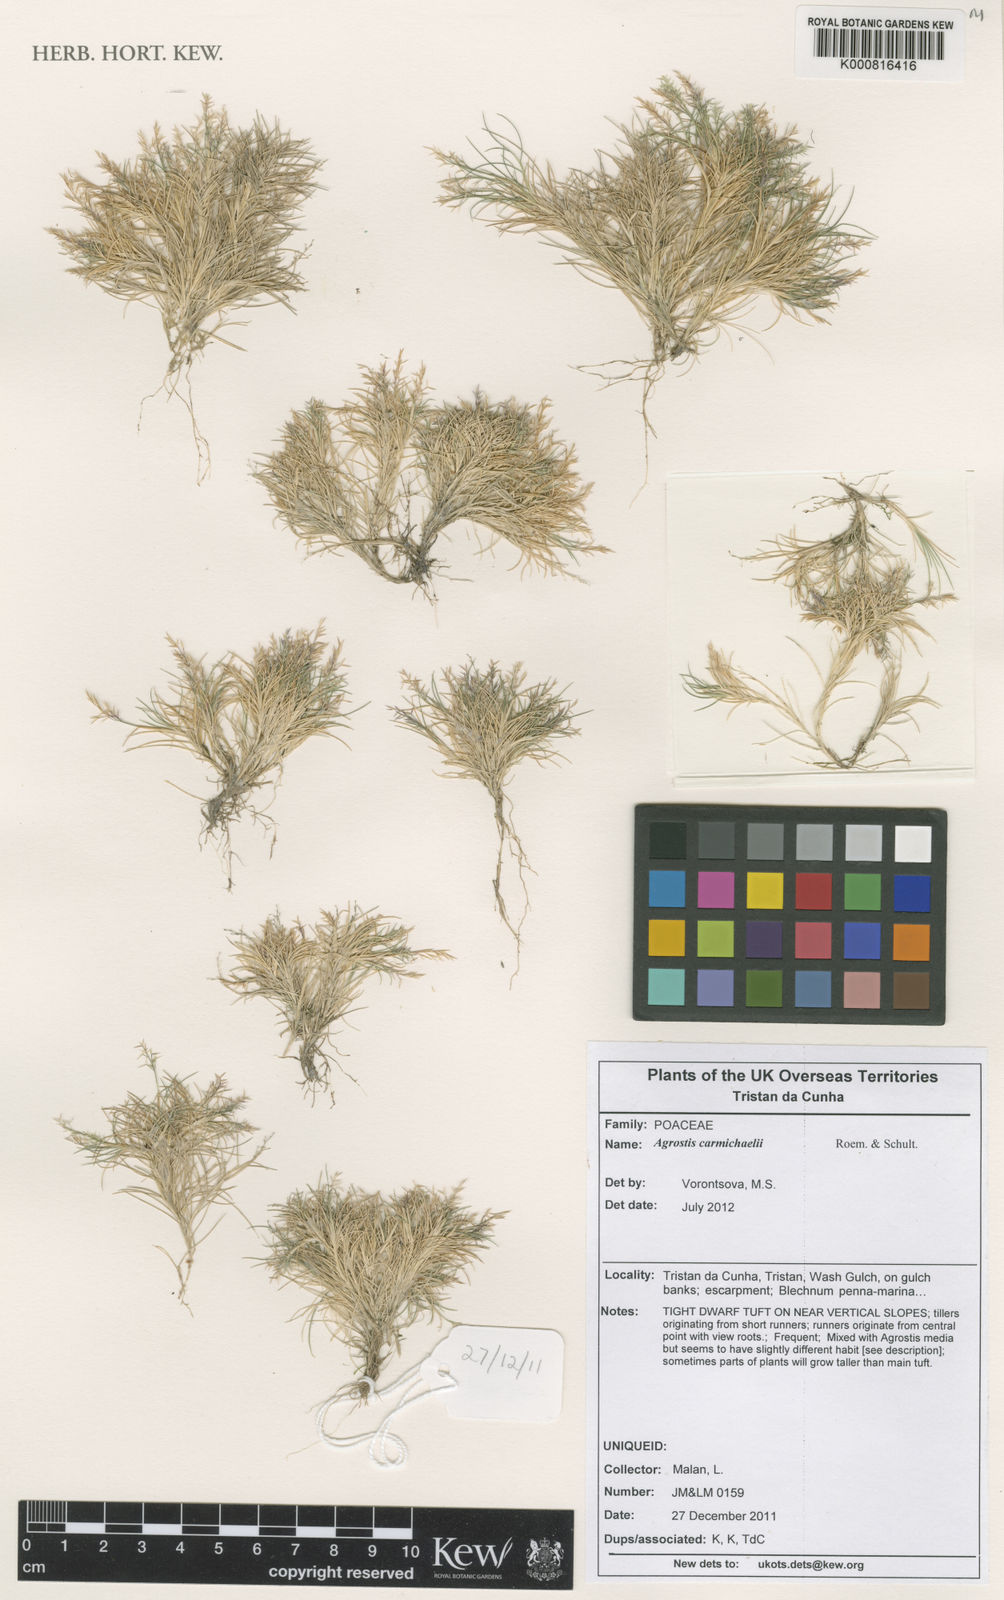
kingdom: Plantae
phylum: Tracheophyta
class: Liliopsida
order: Poales
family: Poaceae
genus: Agrostis
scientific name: Agrostis carmichaelii
